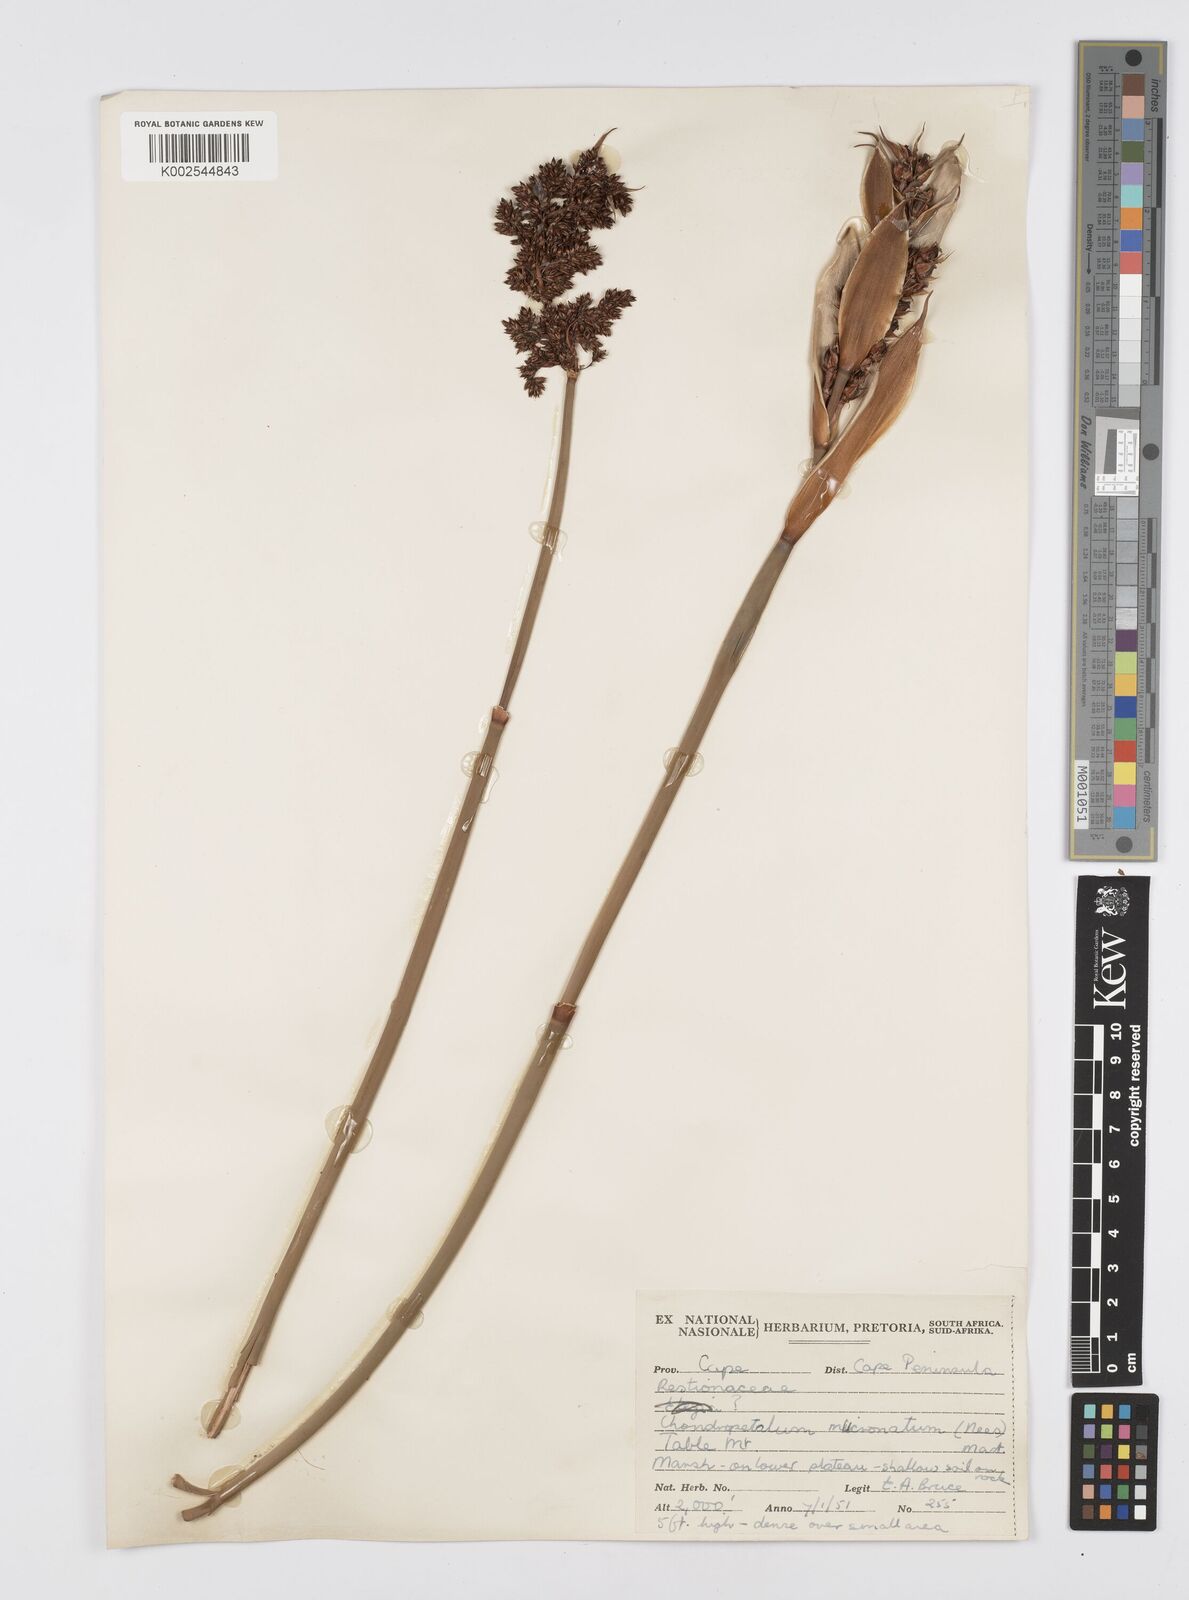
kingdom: Plantae
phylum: Tracheophyta
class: Liliopsida
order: Poales
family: Restionaceae
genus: Elegia
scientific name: Elegia mucronata
